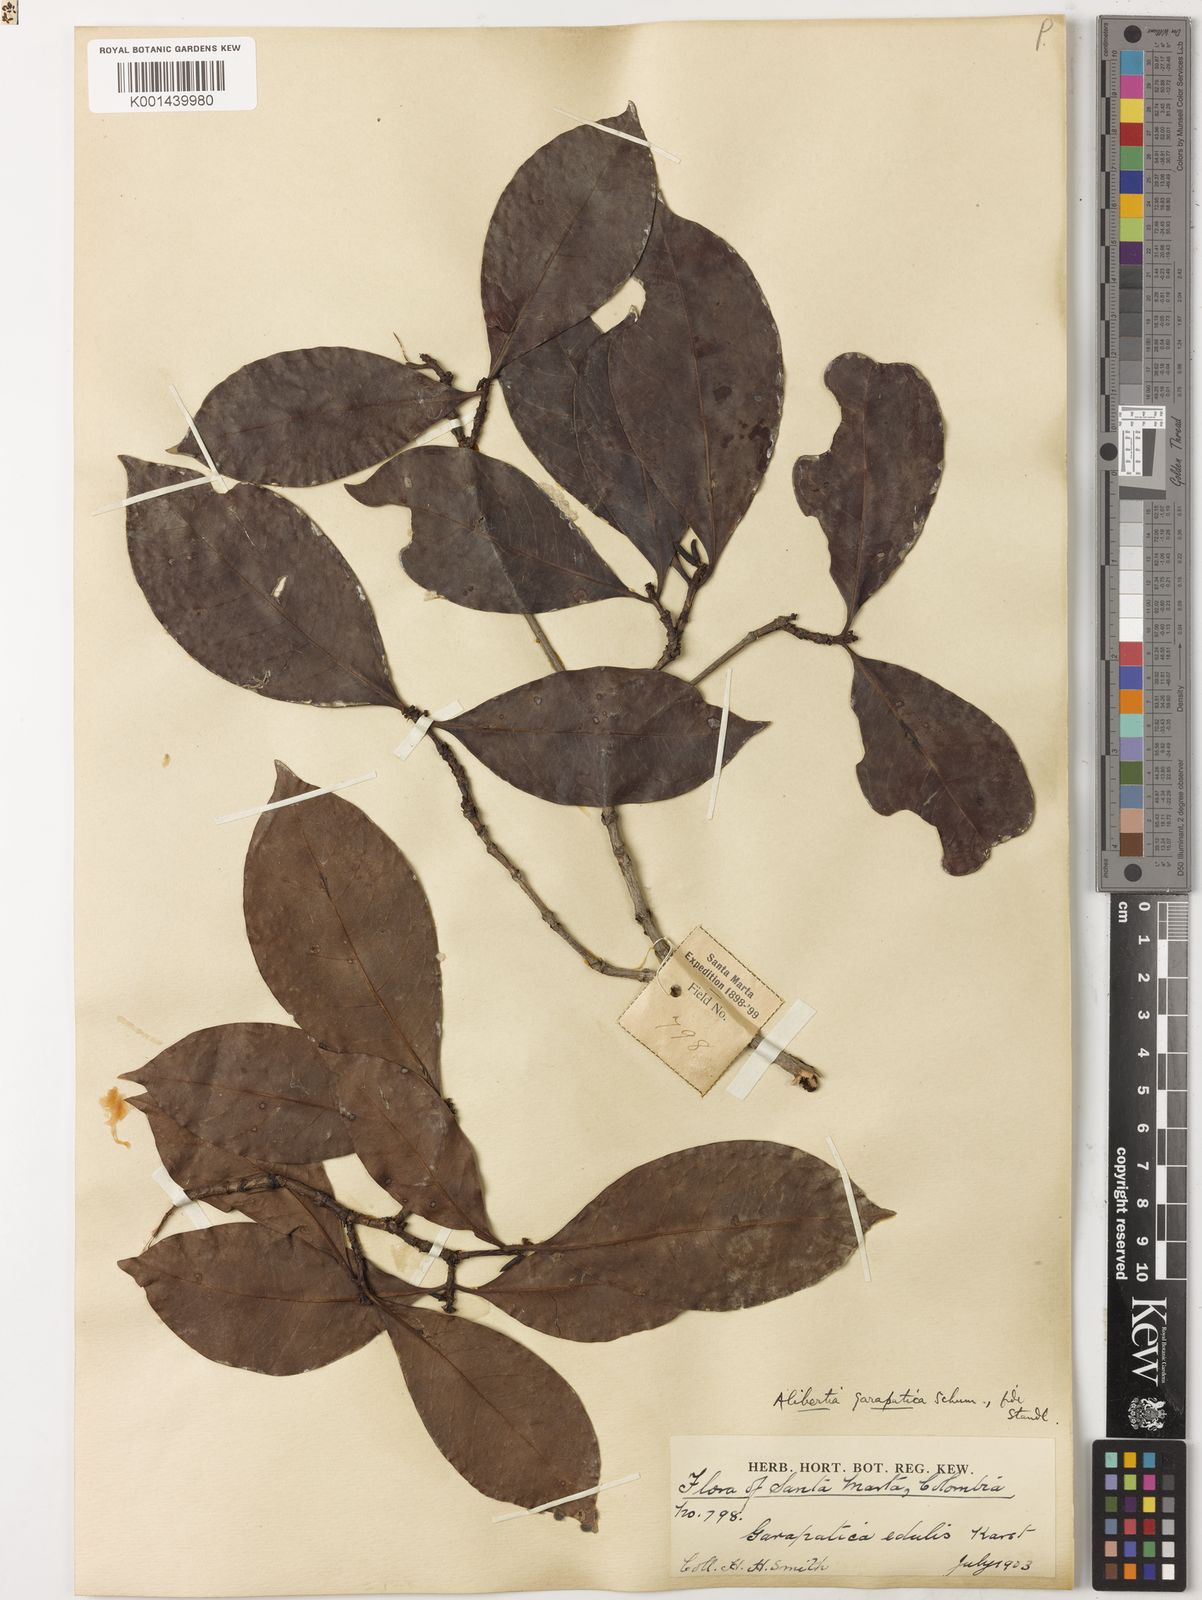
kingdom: Plantae
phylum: Tracheophyta
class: Magnoliopsida
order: Gentianales
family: Rubiaceae
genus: Alibertia
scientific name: Alibertia
